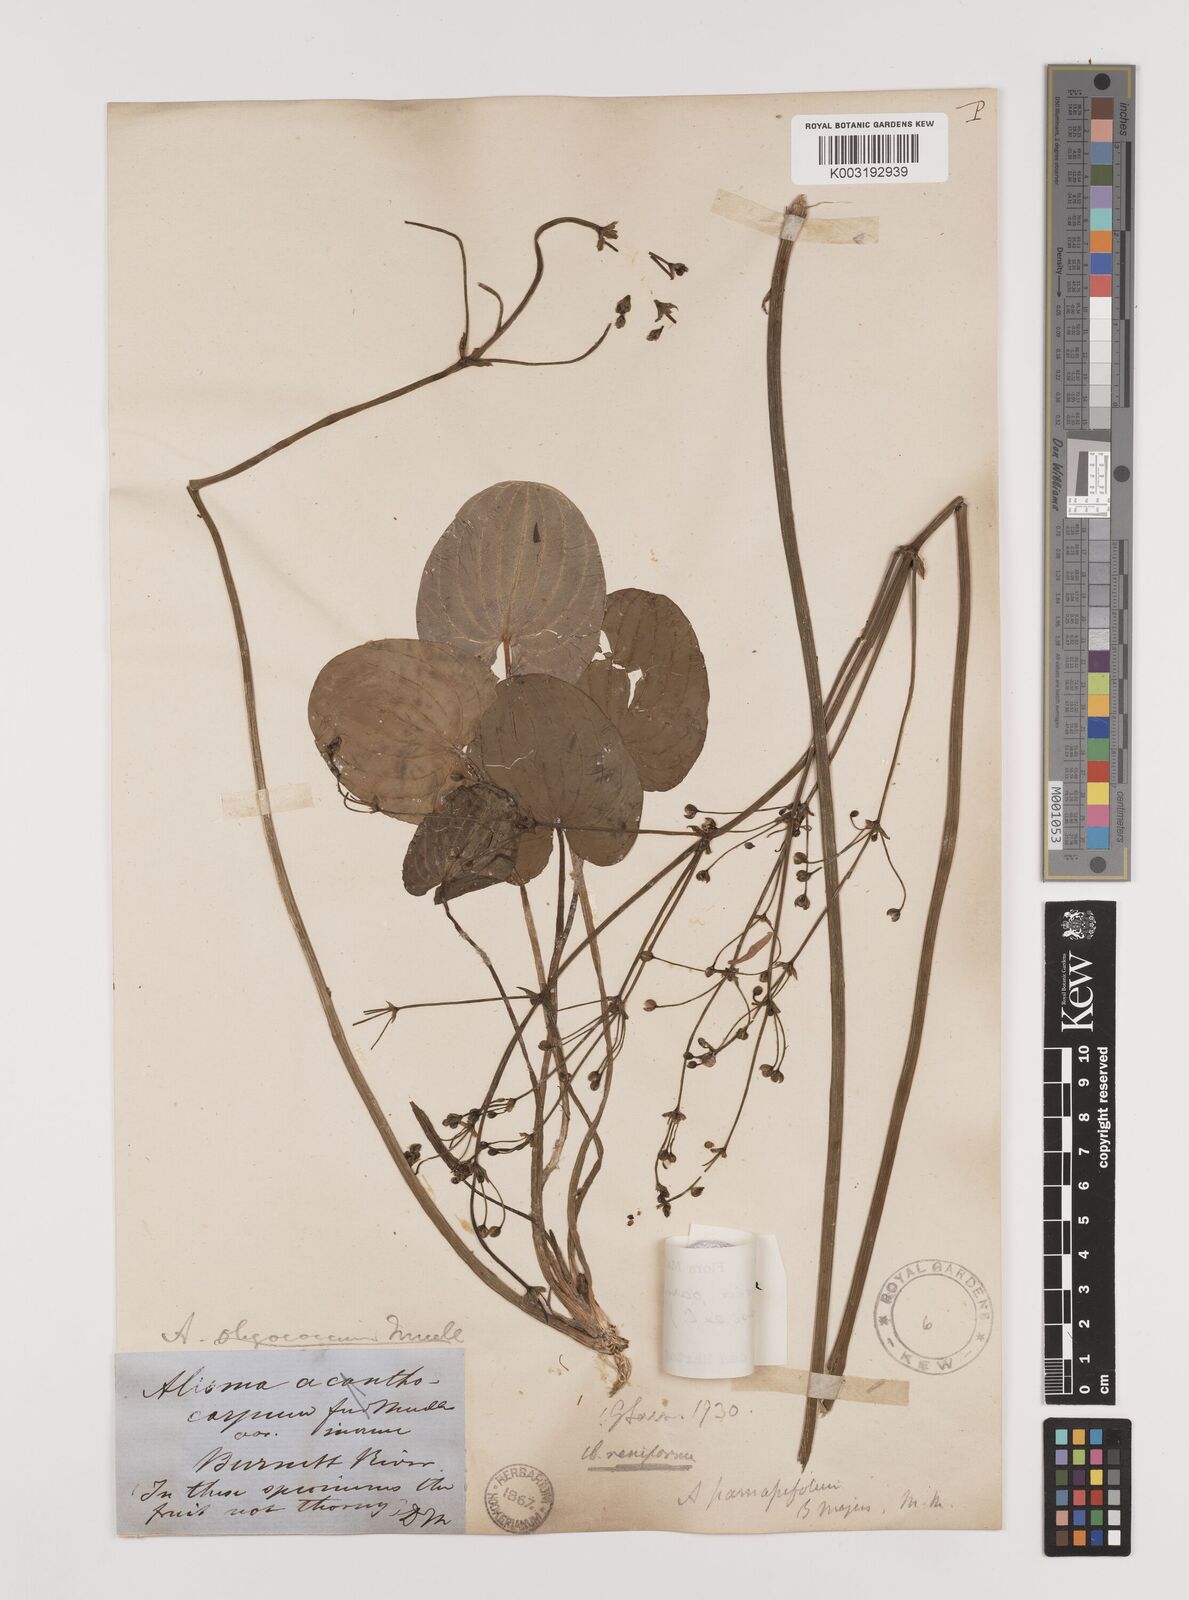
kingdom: Plantae
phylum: Tracheophyta
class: Liliopsida
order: Alismatales
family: Alismataceae
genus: Caldesia
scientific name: Caldesia parnassifolia
